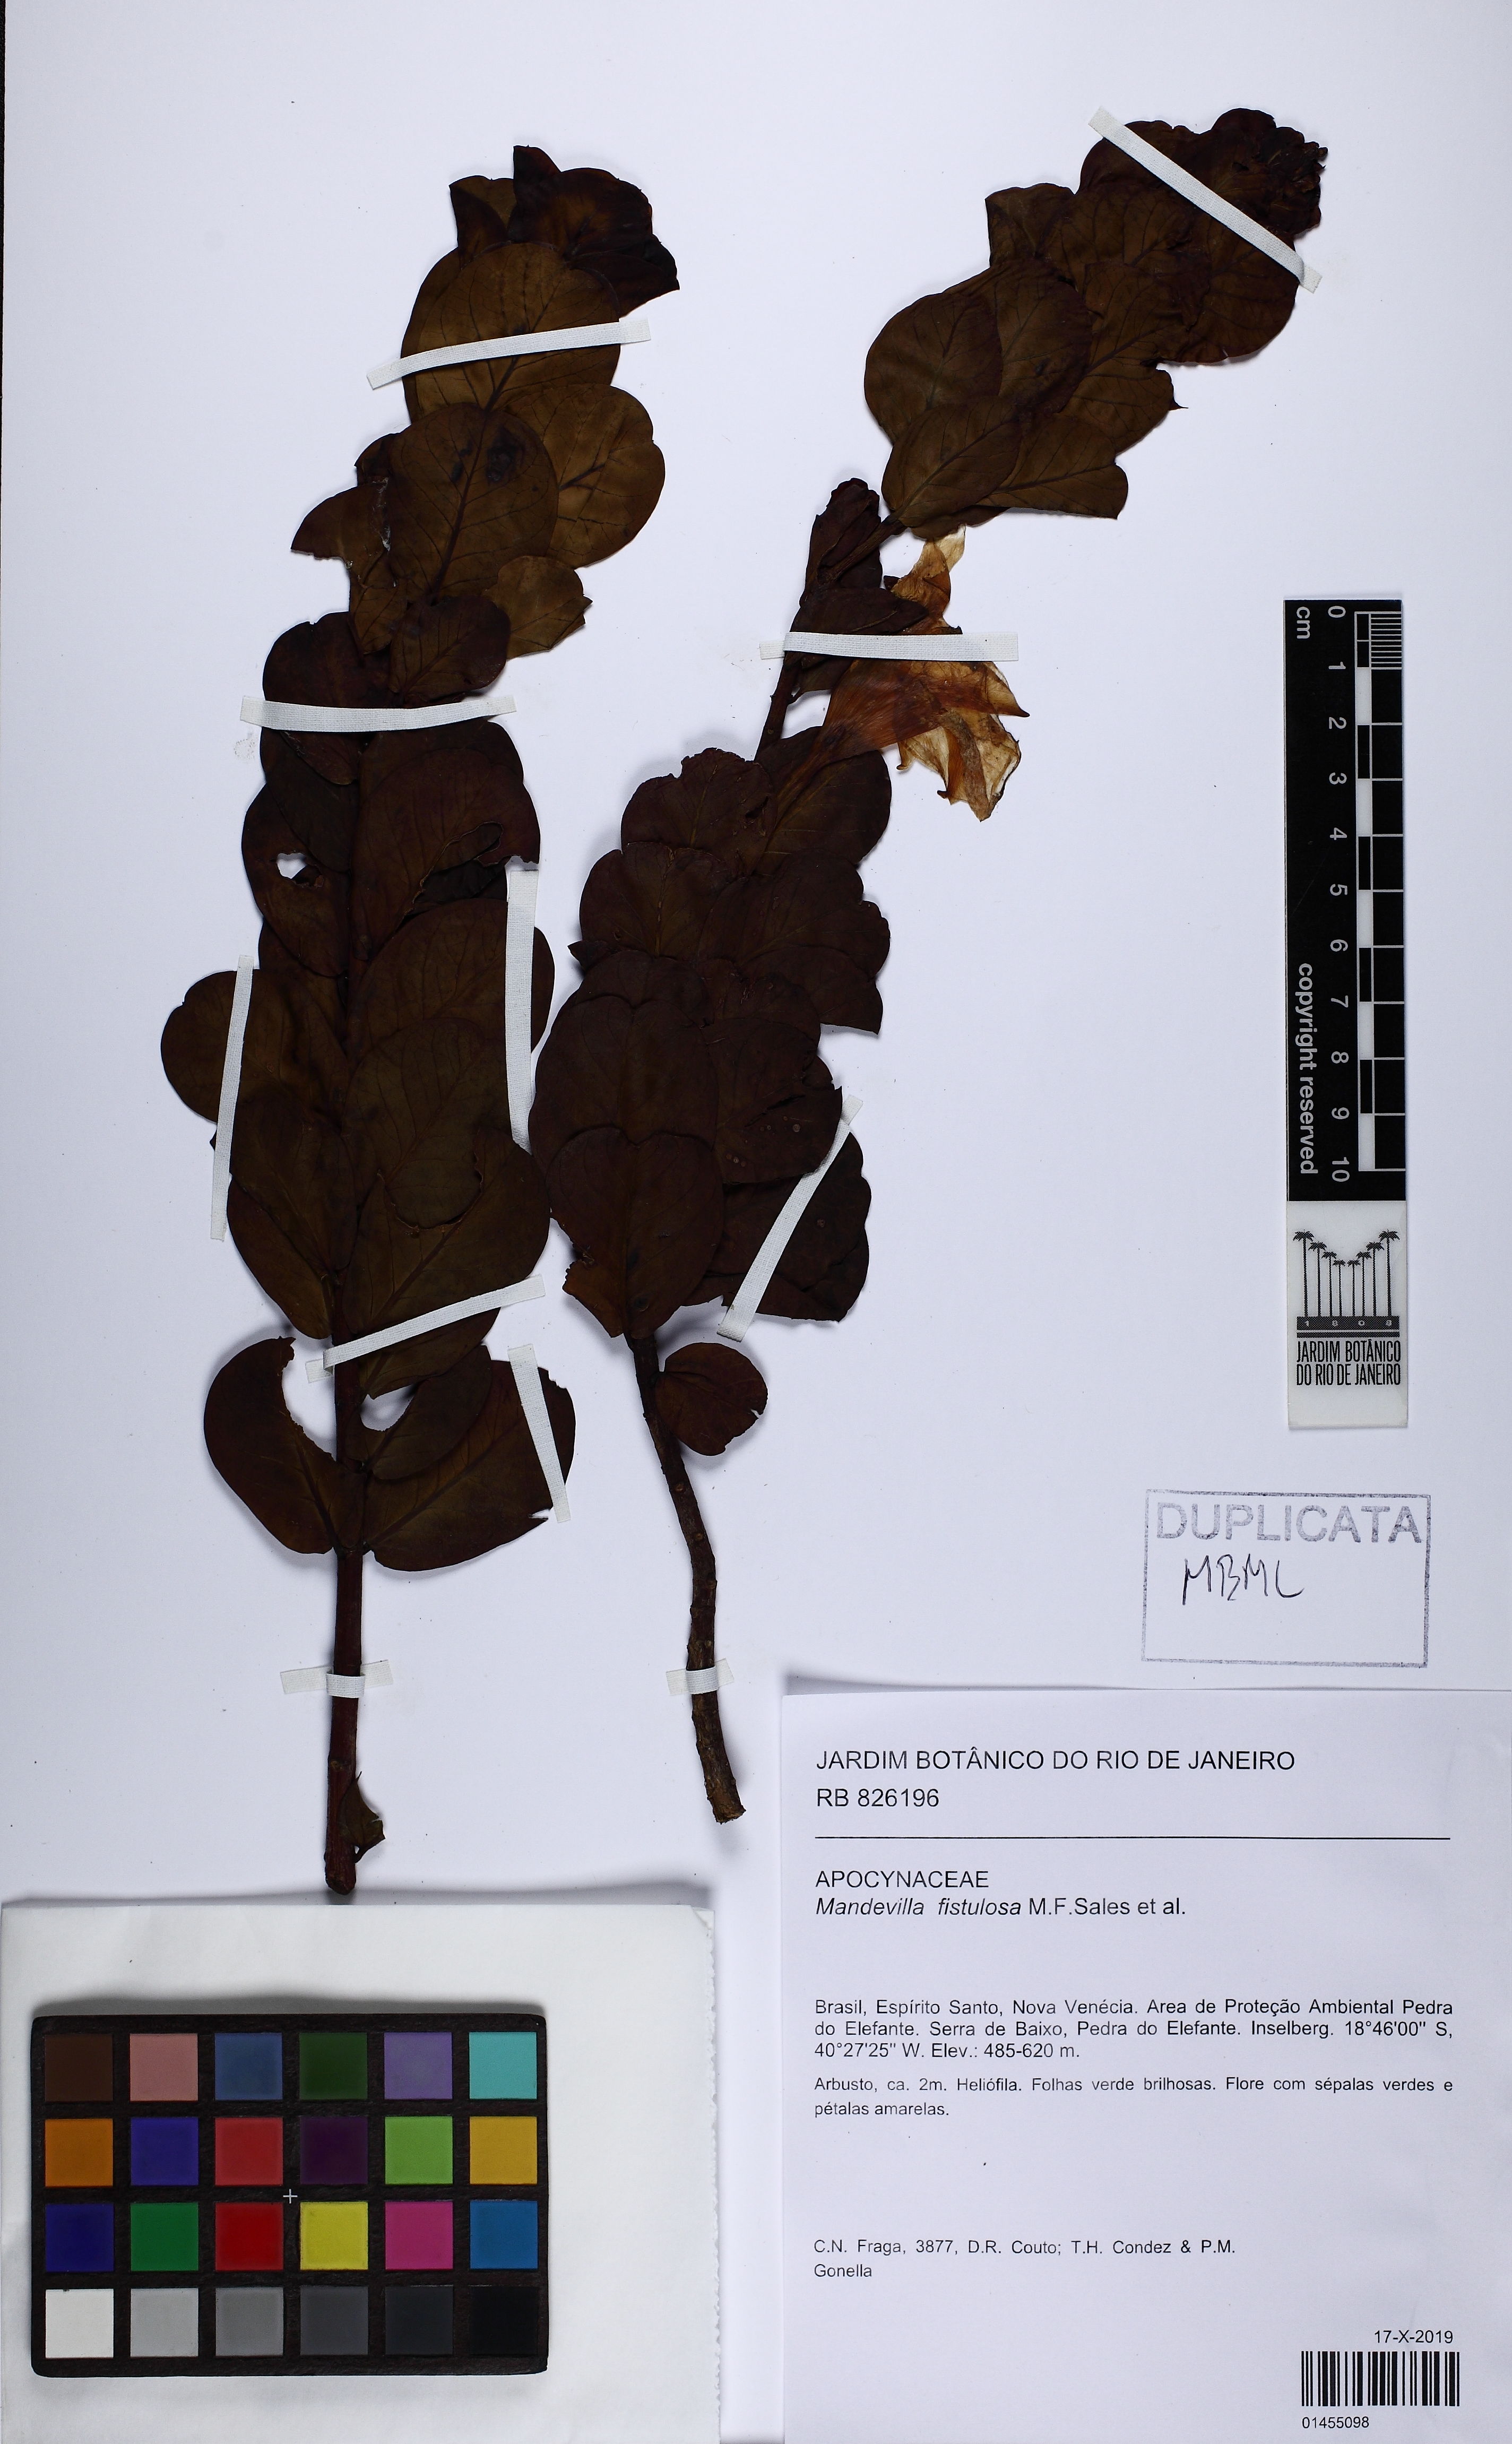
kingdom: Plantae
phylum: Tracheophyta
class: Magnoliopsida
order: Gentianales
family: Apocynaceae
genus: Mandevilla
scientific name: Mandevilla fistulosa
